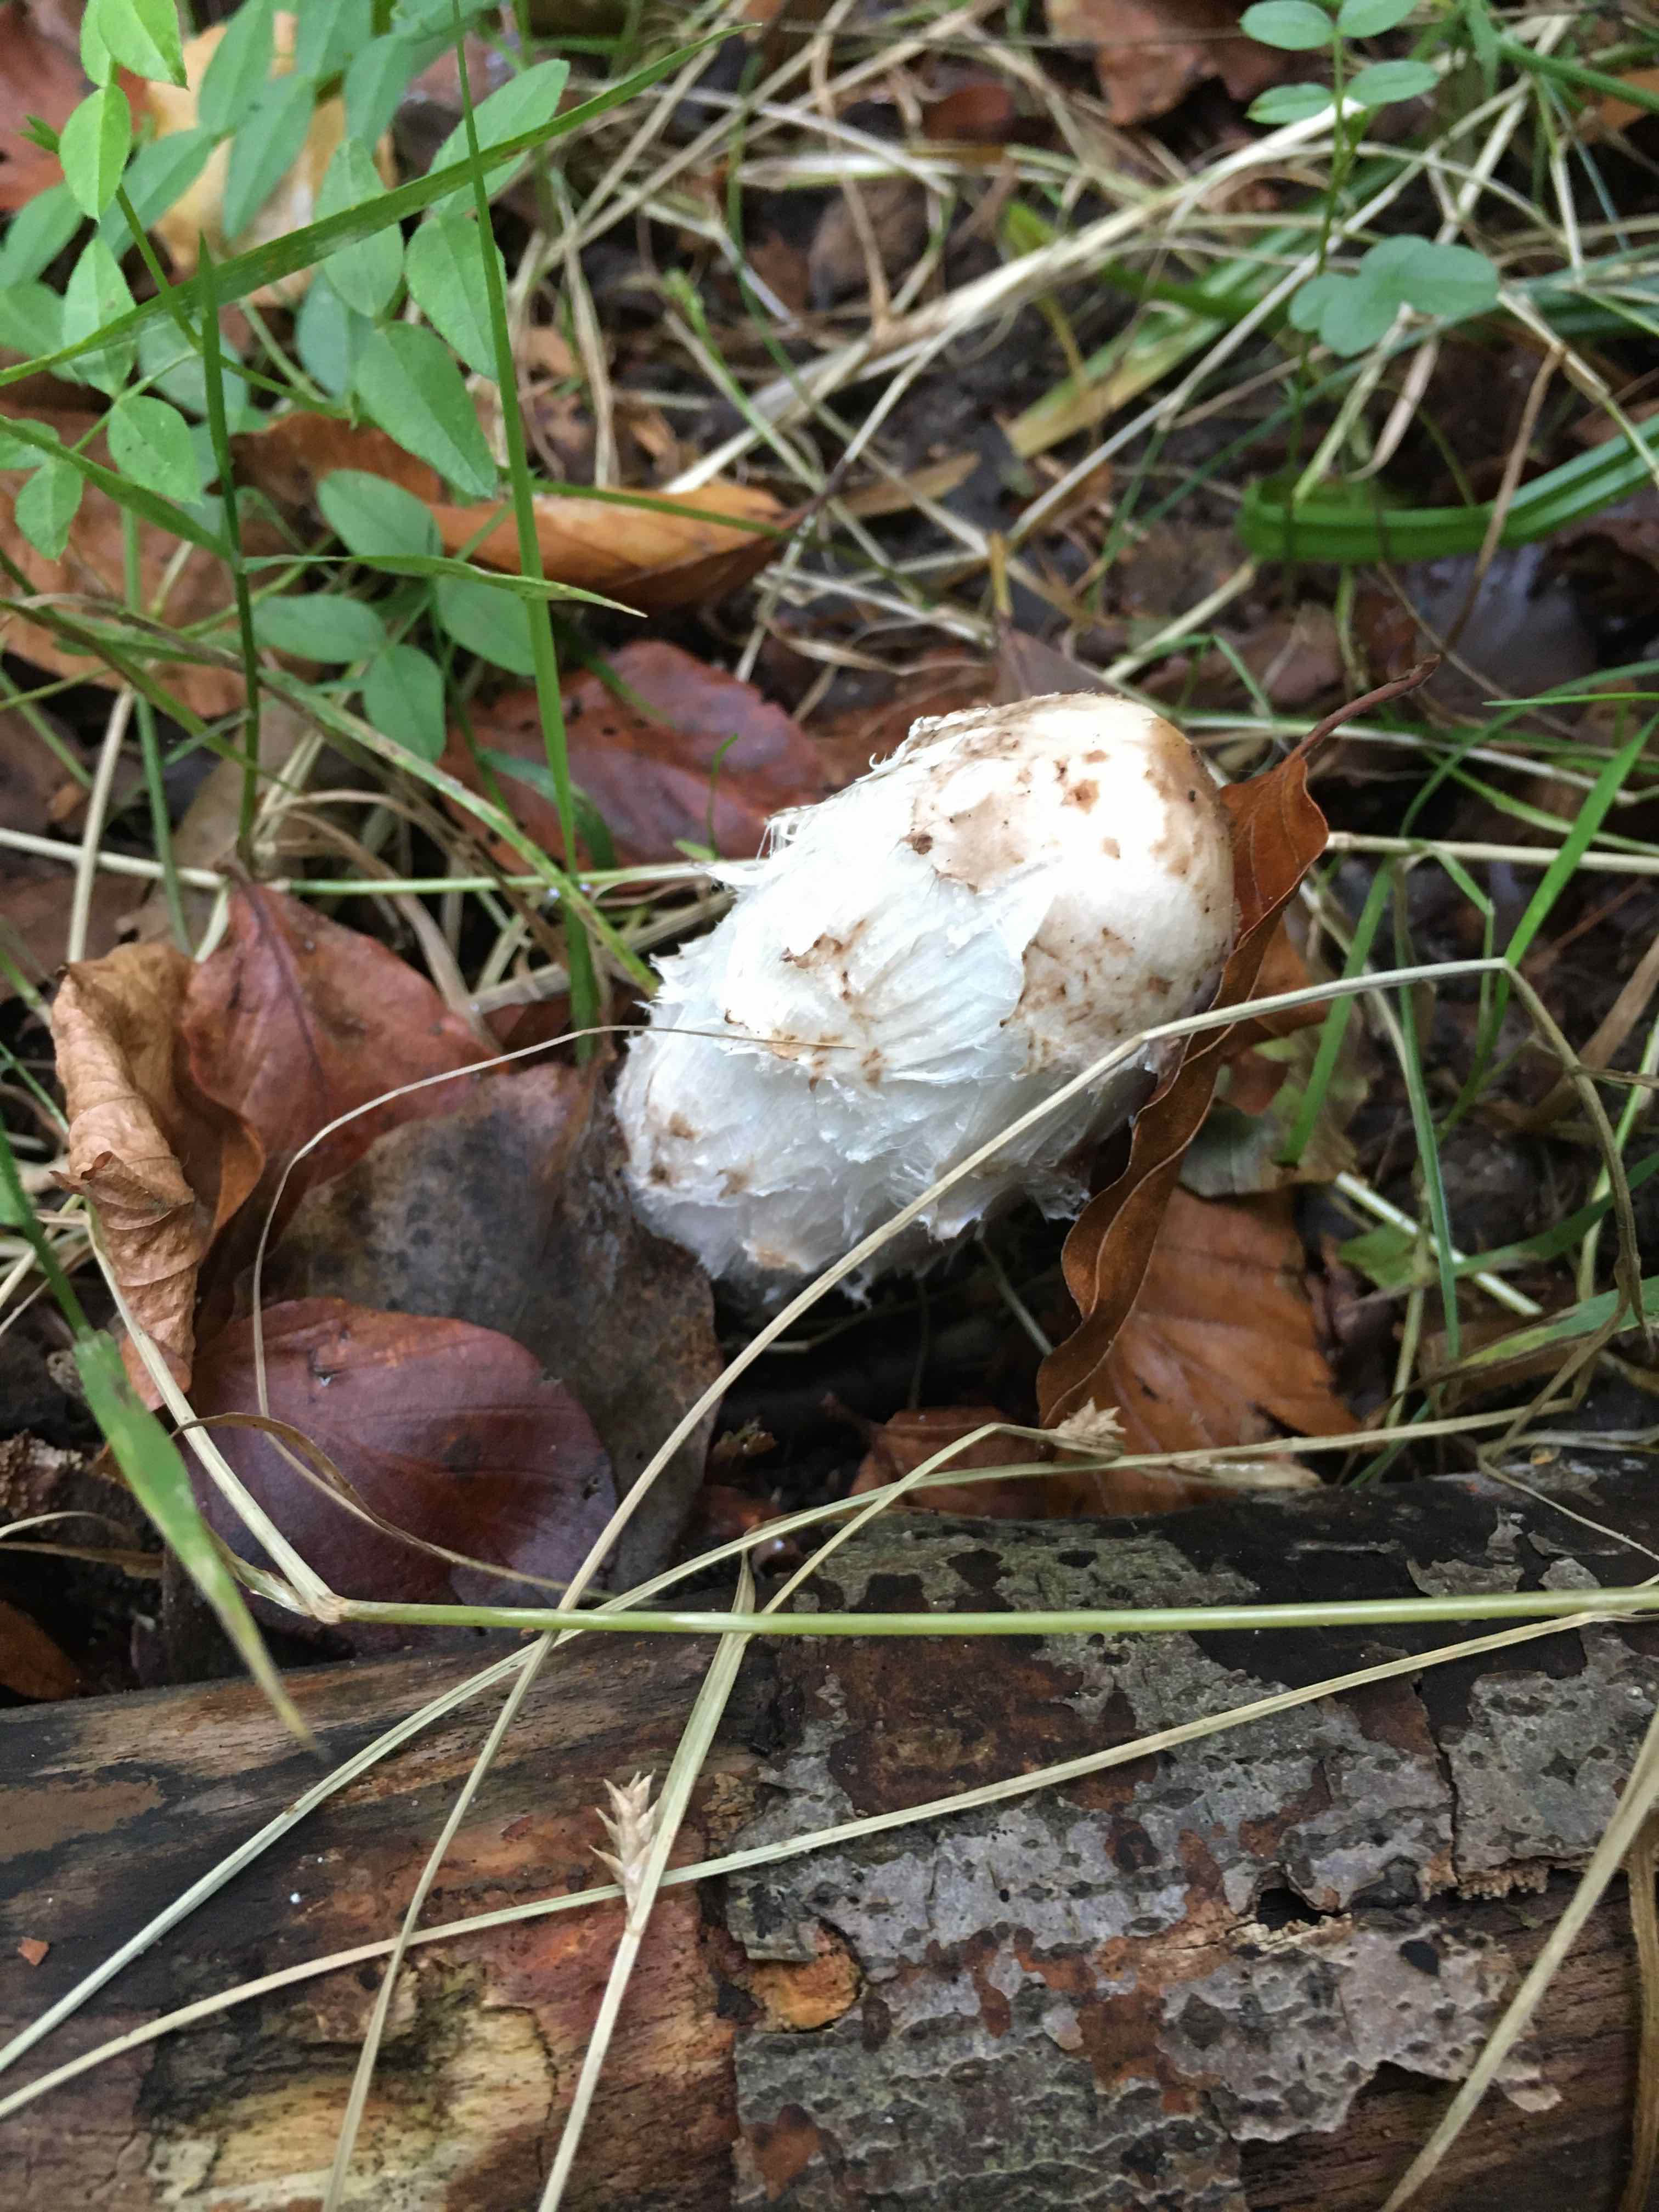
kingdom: Fungi
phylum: Basidiomycota
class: Agaricomycetes
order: Agaricales
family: Agaricaceae
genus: Coprinus
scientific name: Coprinus comatus
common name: stor parykhat
